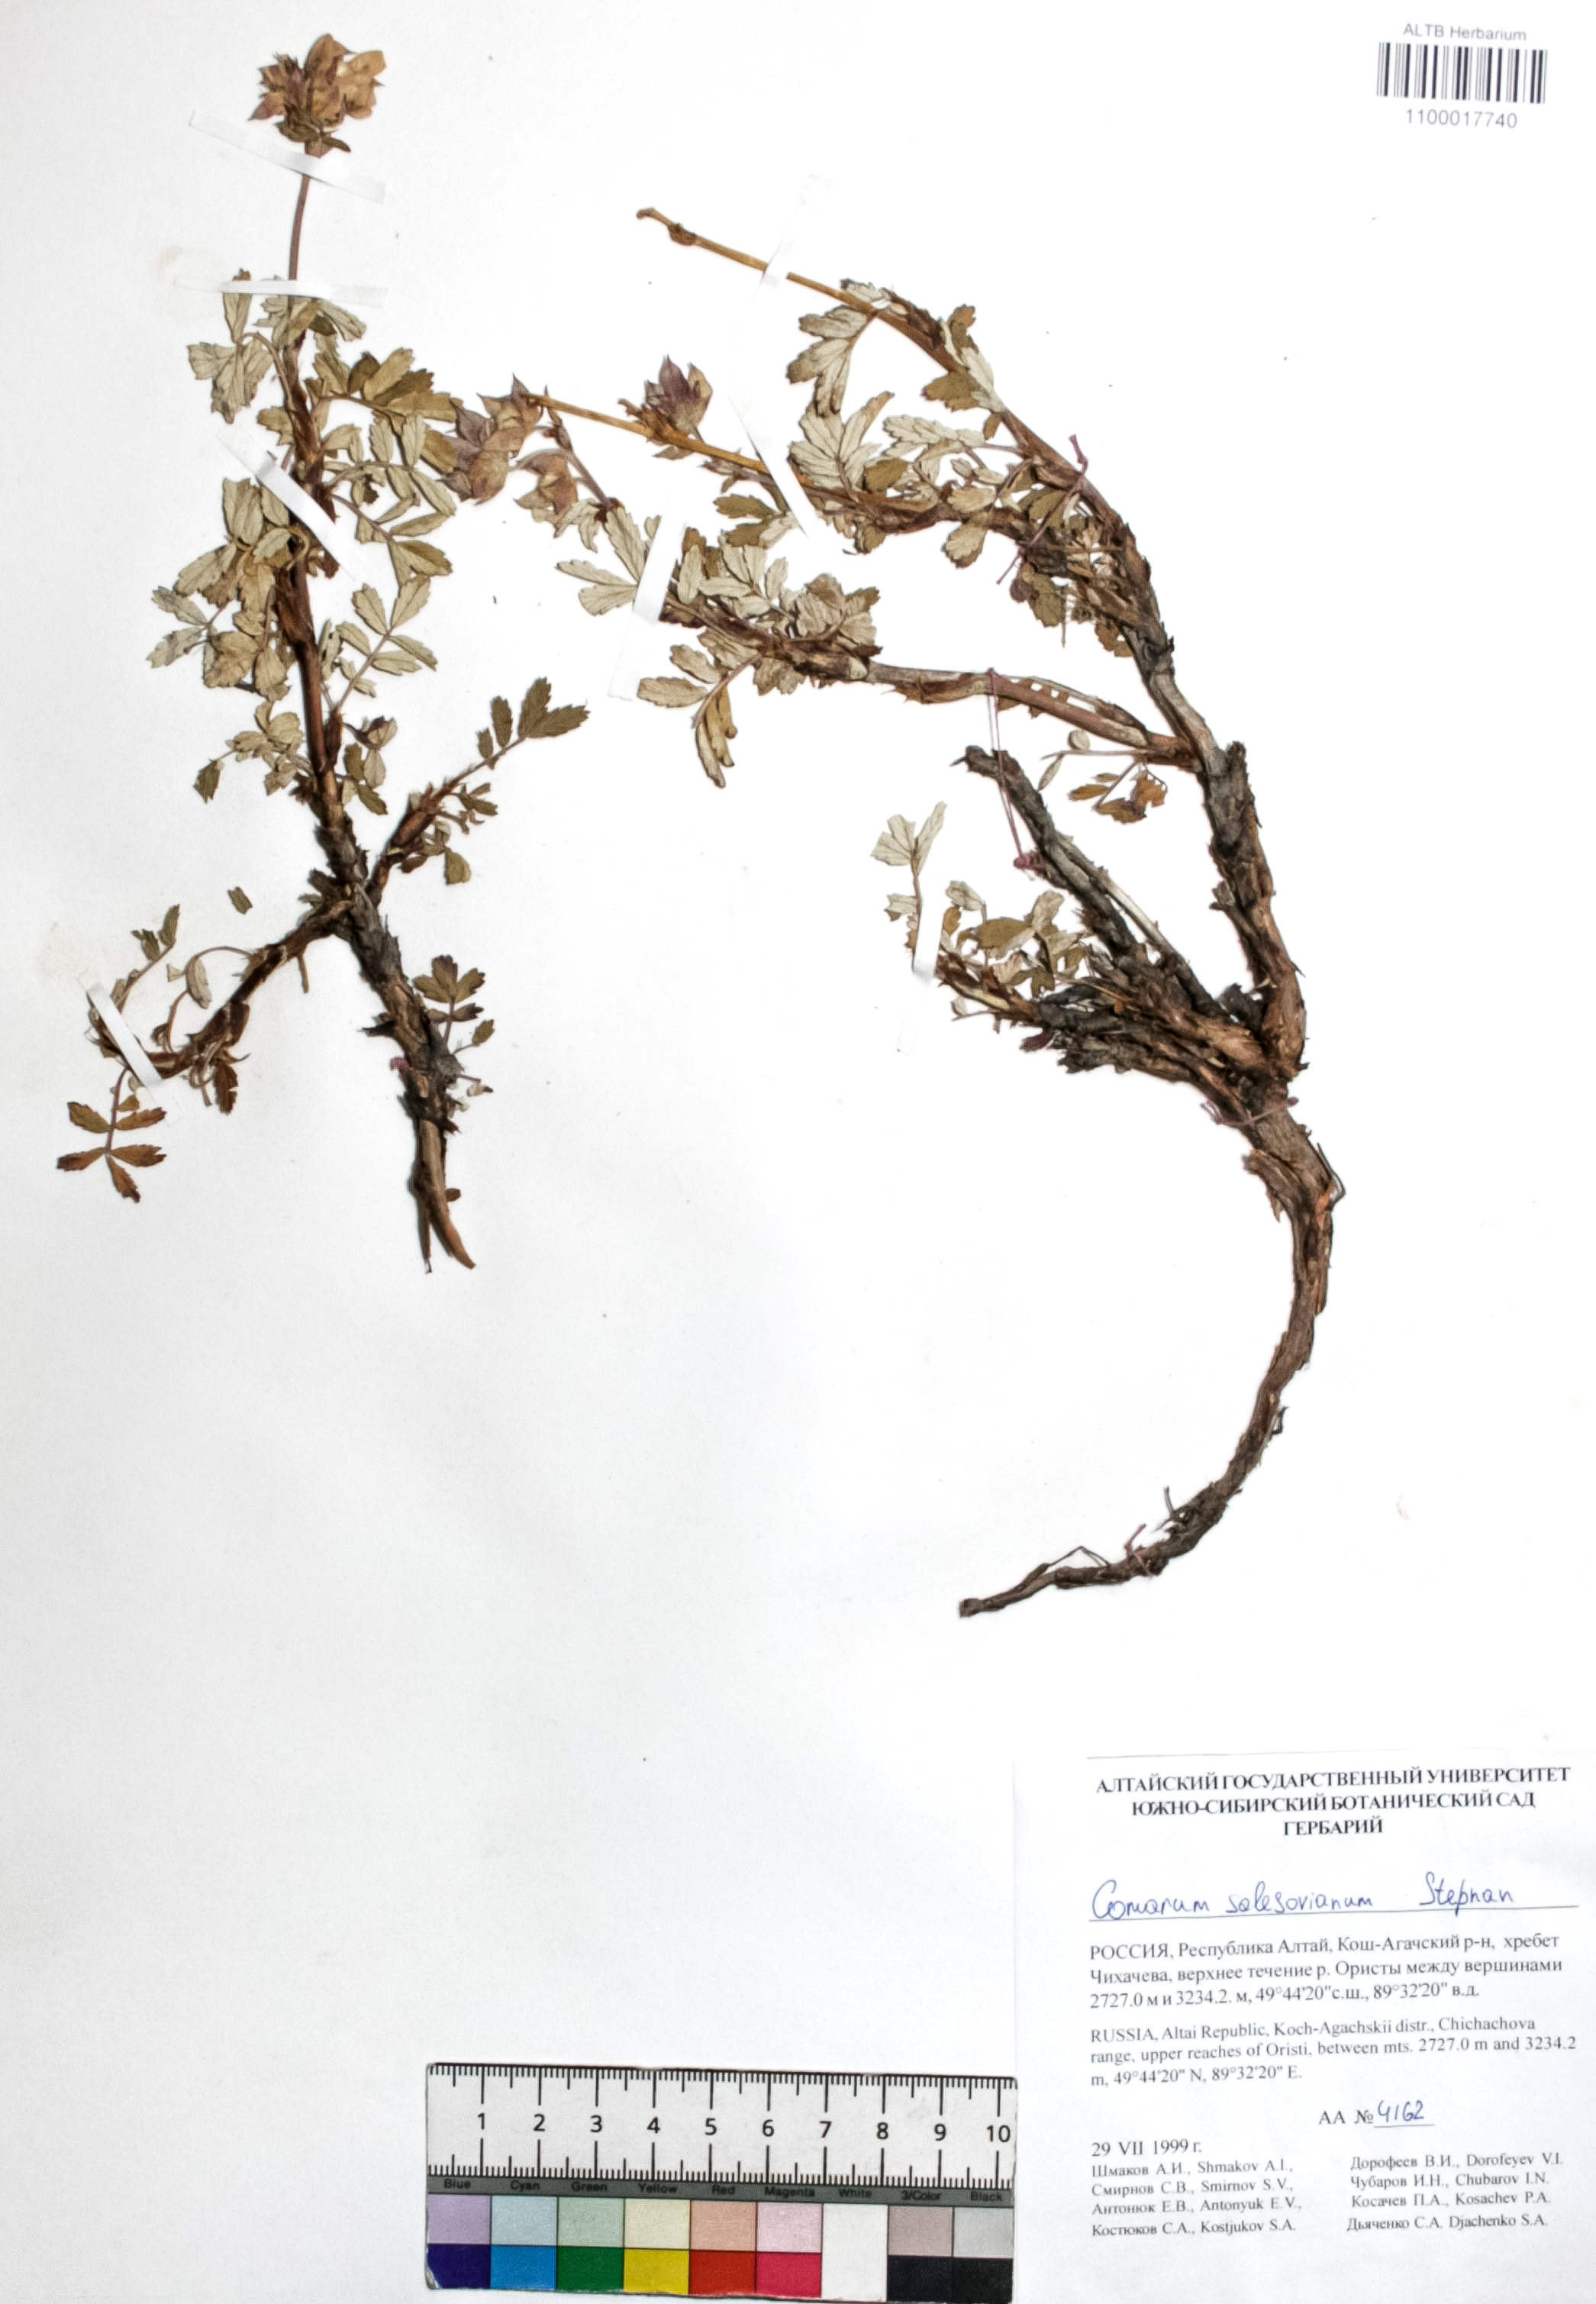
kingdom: Plantae
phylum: Tracheophyta
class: Magnoliopsida
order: Rosales
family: Rosaceae
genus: Farinopsis
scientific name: Farinopsis salesoviana
